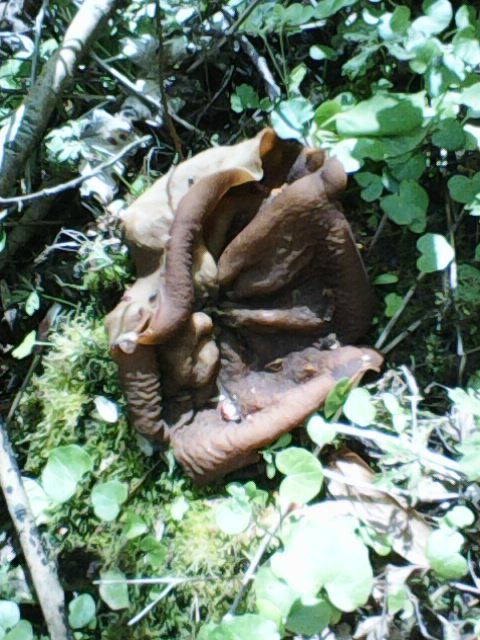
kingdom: Fungi
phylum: Ascomycota
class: Pezizomycetes
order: Pezizales
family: Morchellaceae
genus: Disciotis
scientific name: Disciotis venosa
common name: klor-bægermorkel
